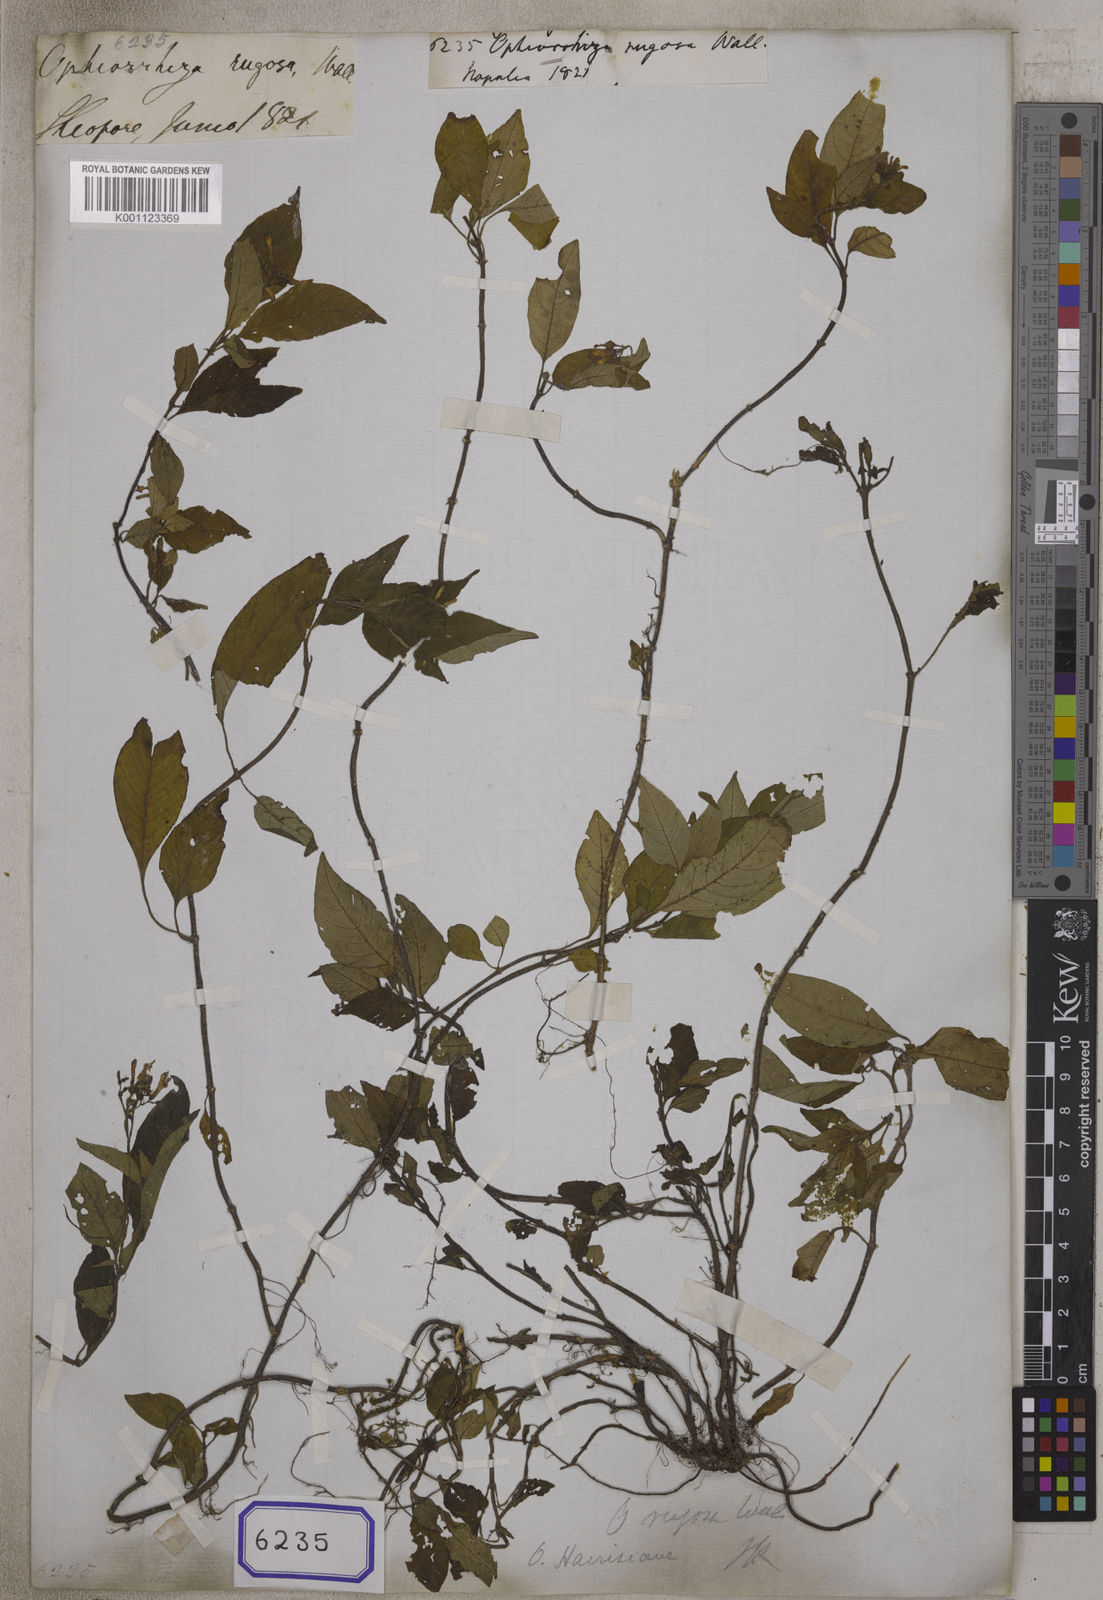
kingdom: Plantae
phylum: Tracheophyta
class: Magnoliopsida
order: Gentianales
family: Rubiaceae
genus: Ophiorrhiza
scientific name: Ophiorrhiza rugosa
